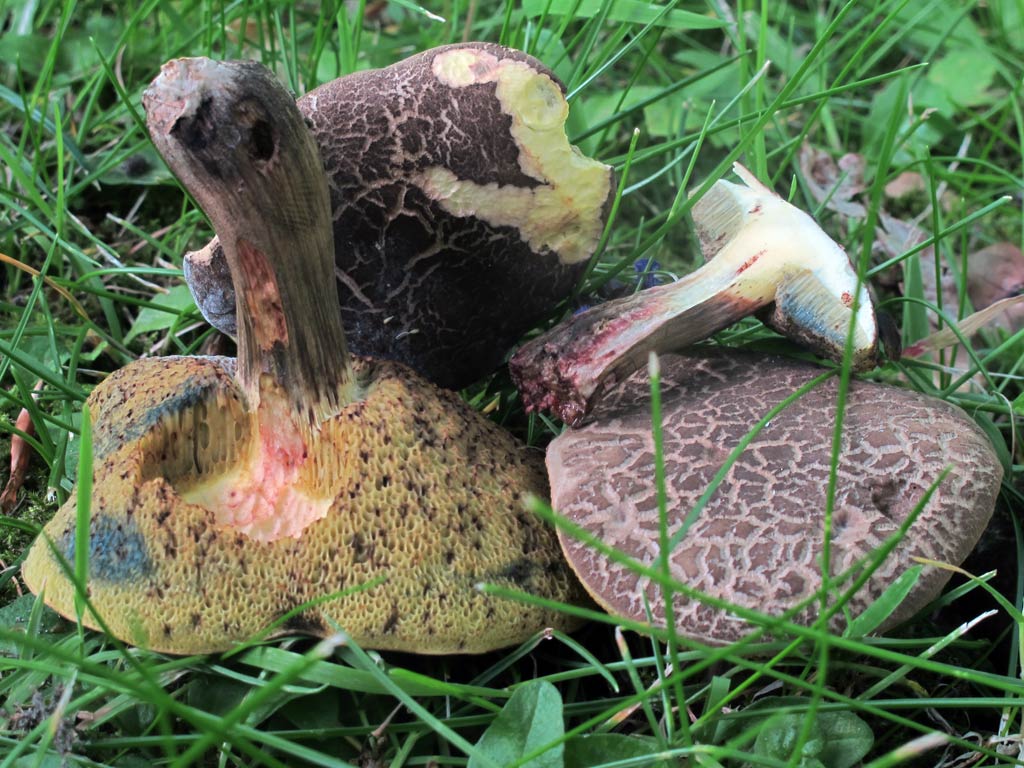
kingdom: Fungi
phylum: Basidiomycota
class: Agaricomycetes
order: Boletales
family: Boletaceae
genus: Xerocomellus
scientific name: Xerocomellus cisalpinus
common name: finsprukken rørhat
